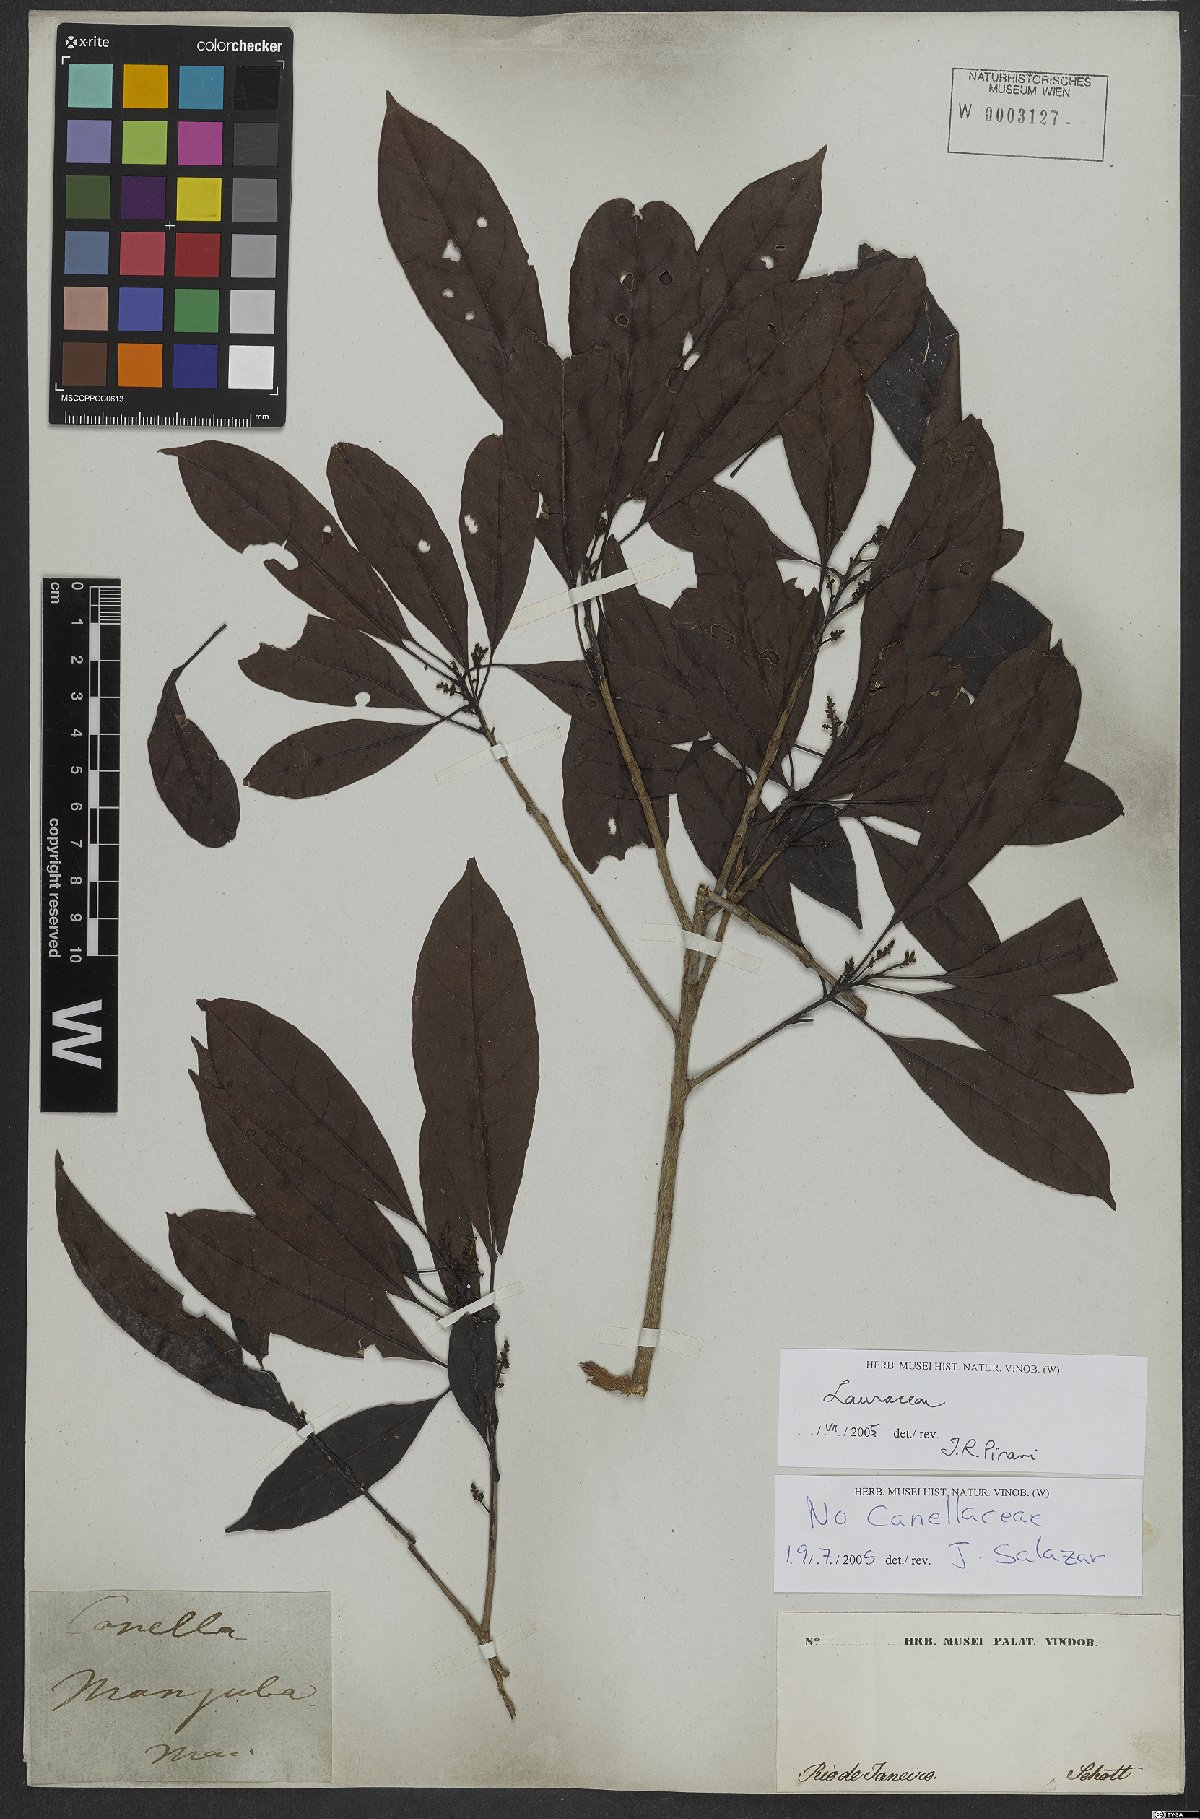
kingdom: Plantae
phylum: Tracheophyta
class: Magnoliopsida
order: Laurales
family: Lauraceae
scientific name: Lauraceae
